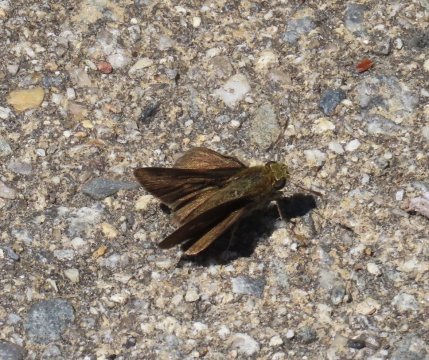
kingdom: Animalia
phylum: Arthropoda
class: Insecta
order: Lepidoptera
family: Hesperiidae
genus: Euphyes
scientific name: Euphyes vestris
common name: Dun Skipper
